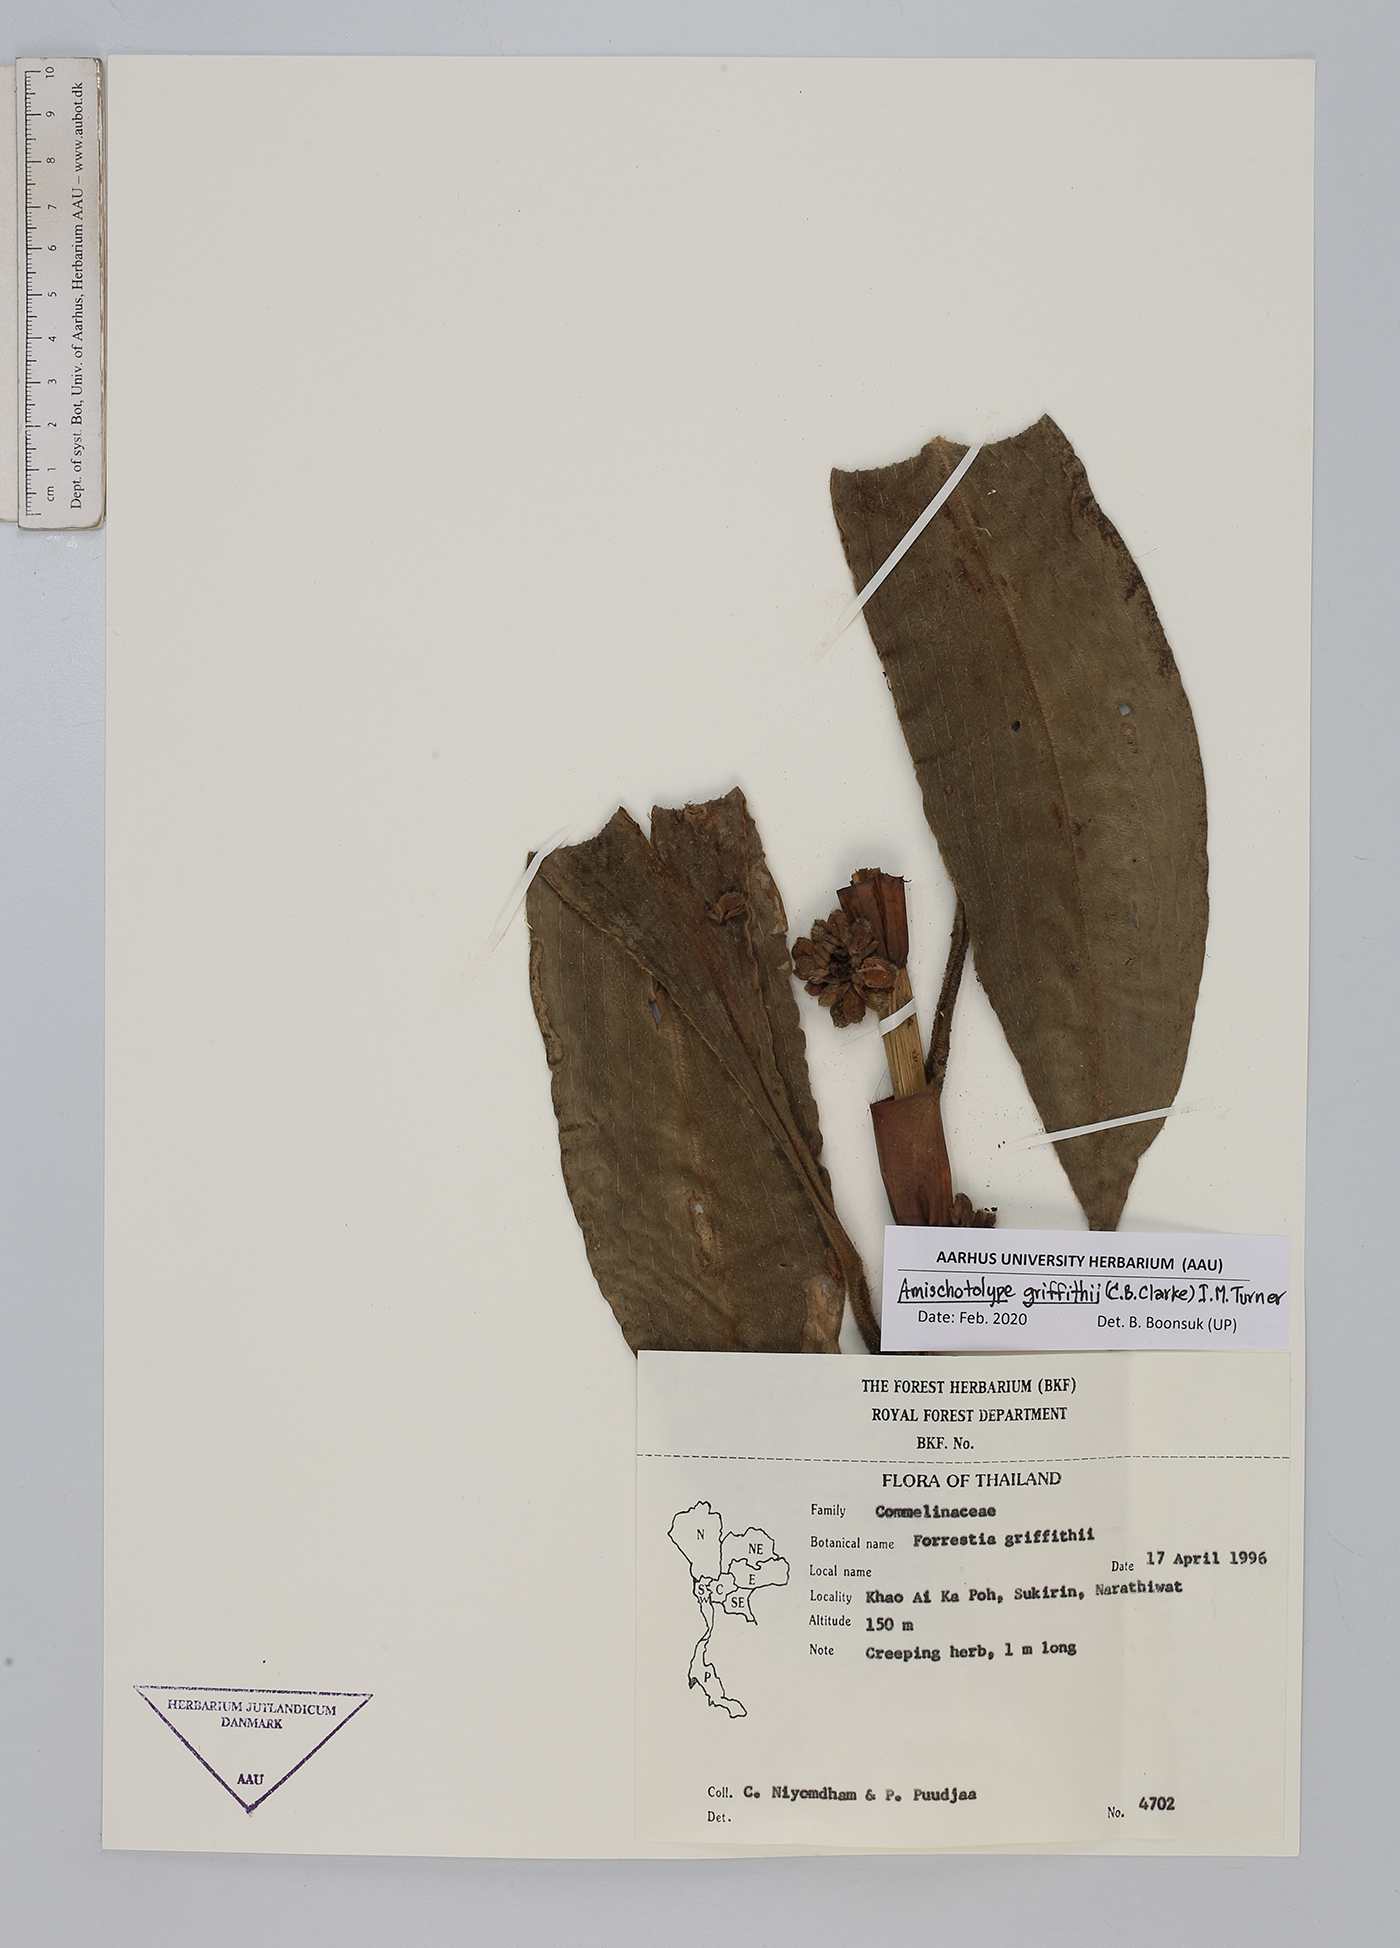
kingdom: Plantae
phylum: Tracheophyta
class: Liliopsida
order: Commelinales
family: Commelinaceae
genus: Amischotolype
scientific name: Amischotolype griffithii
